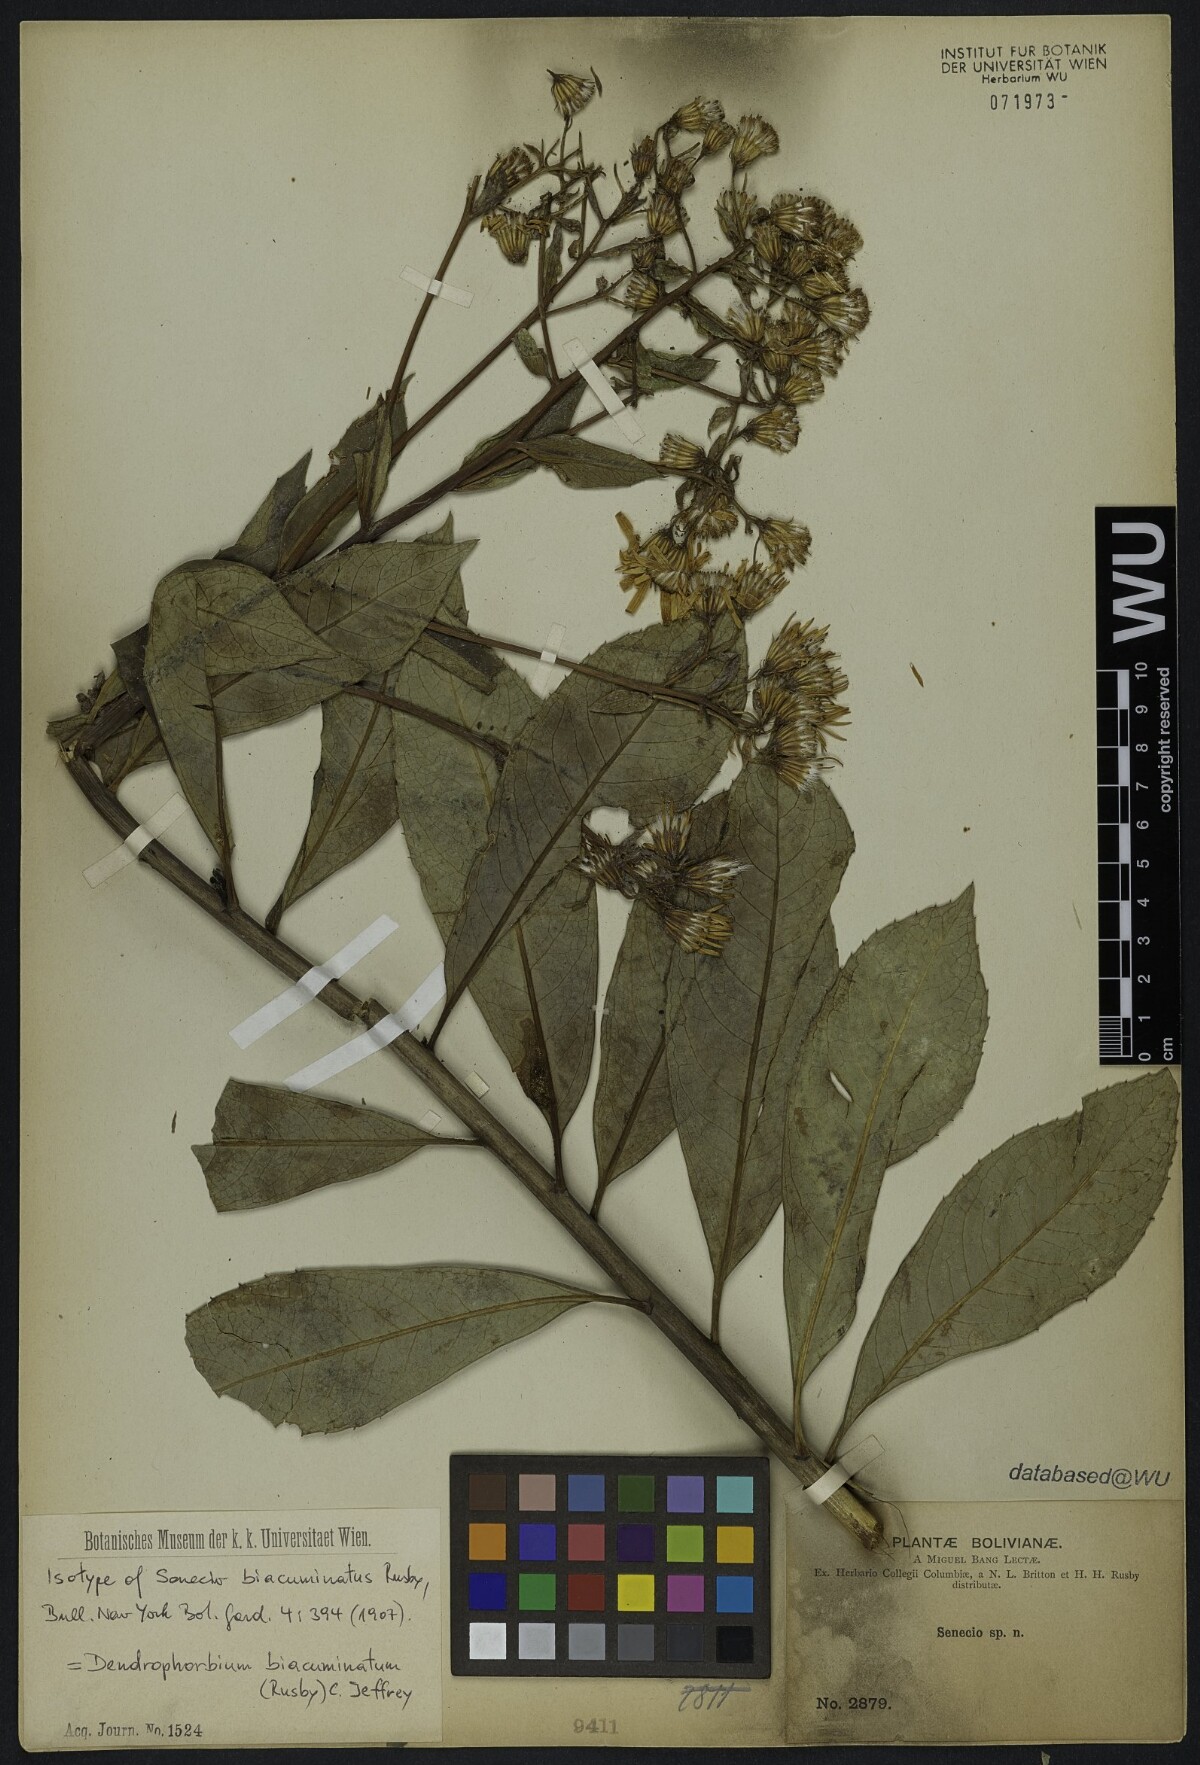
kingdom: Plantae
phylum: Tracheophyta
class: Magnoliopsida
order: Asterales
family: Asteraceae
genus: Dendrophorbium
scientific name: Dendrophorbium biacuminatum
